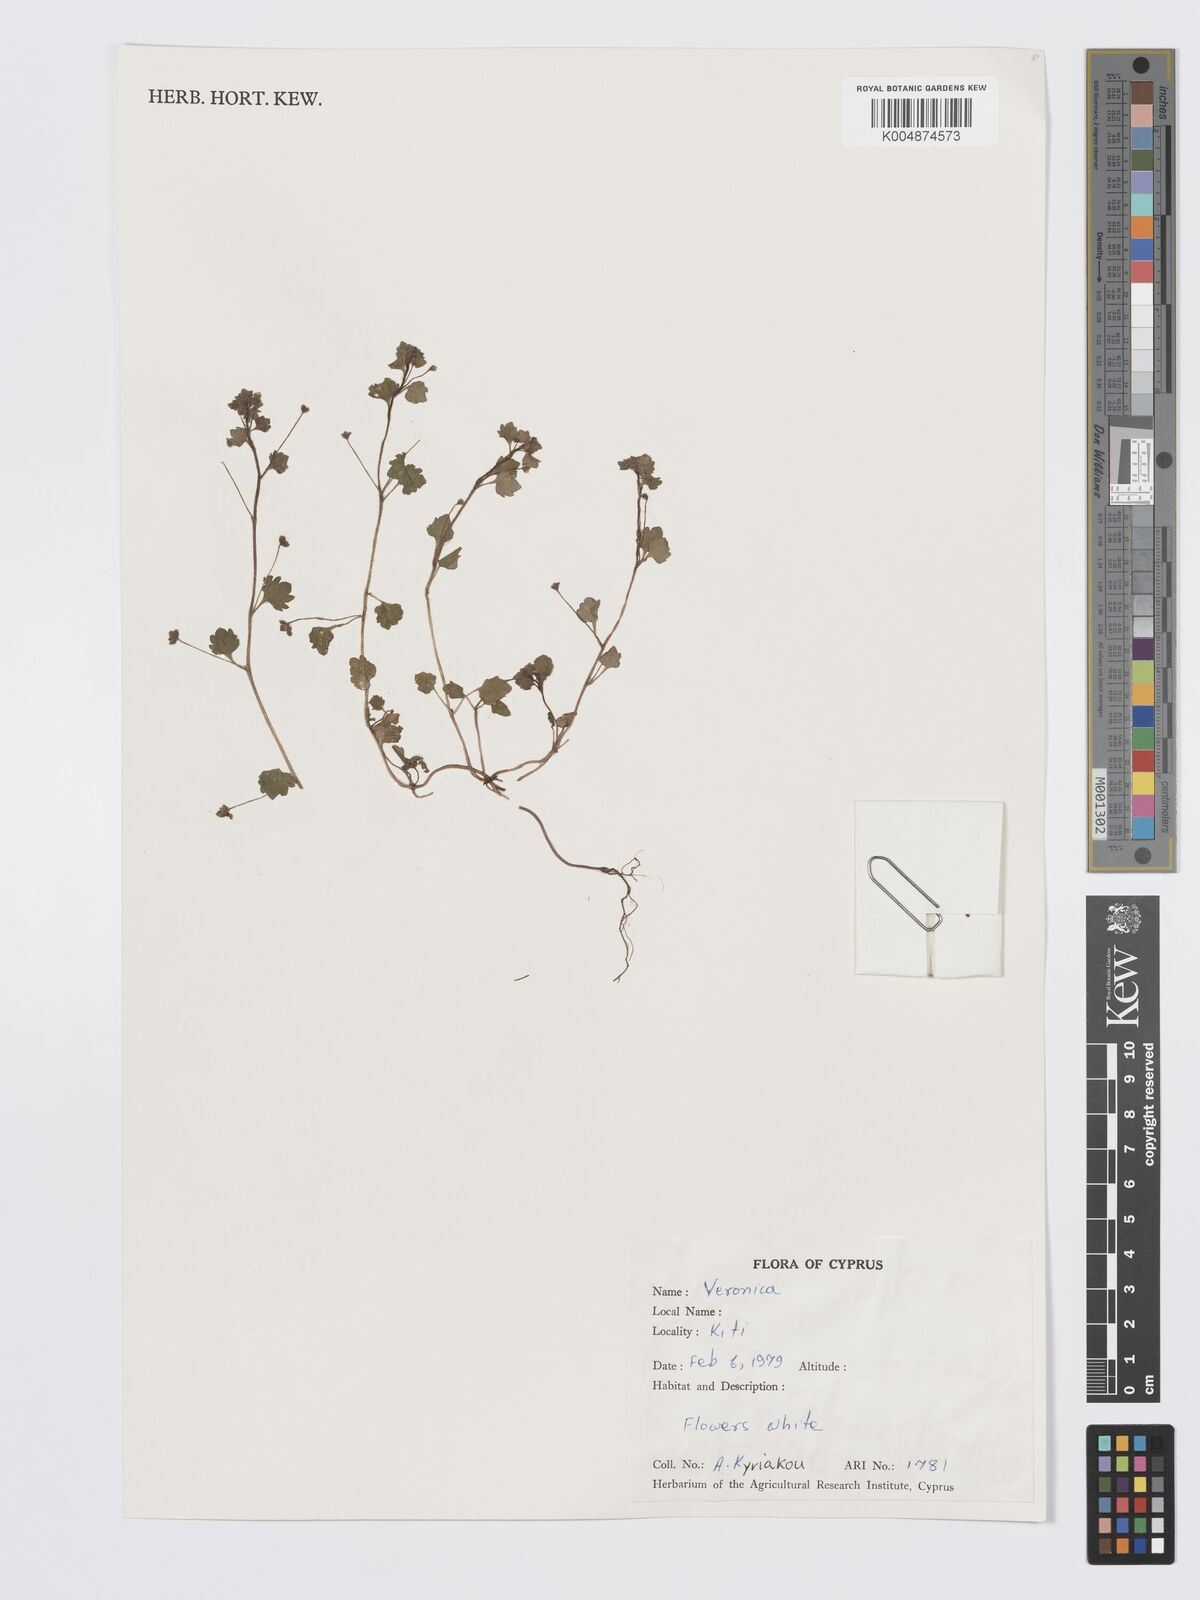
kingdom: Plantae
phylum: Tracheophyta
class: Magnoliopsida
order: Lamiales
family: Plantaginaceae
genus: Veronica
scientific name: Veronica
